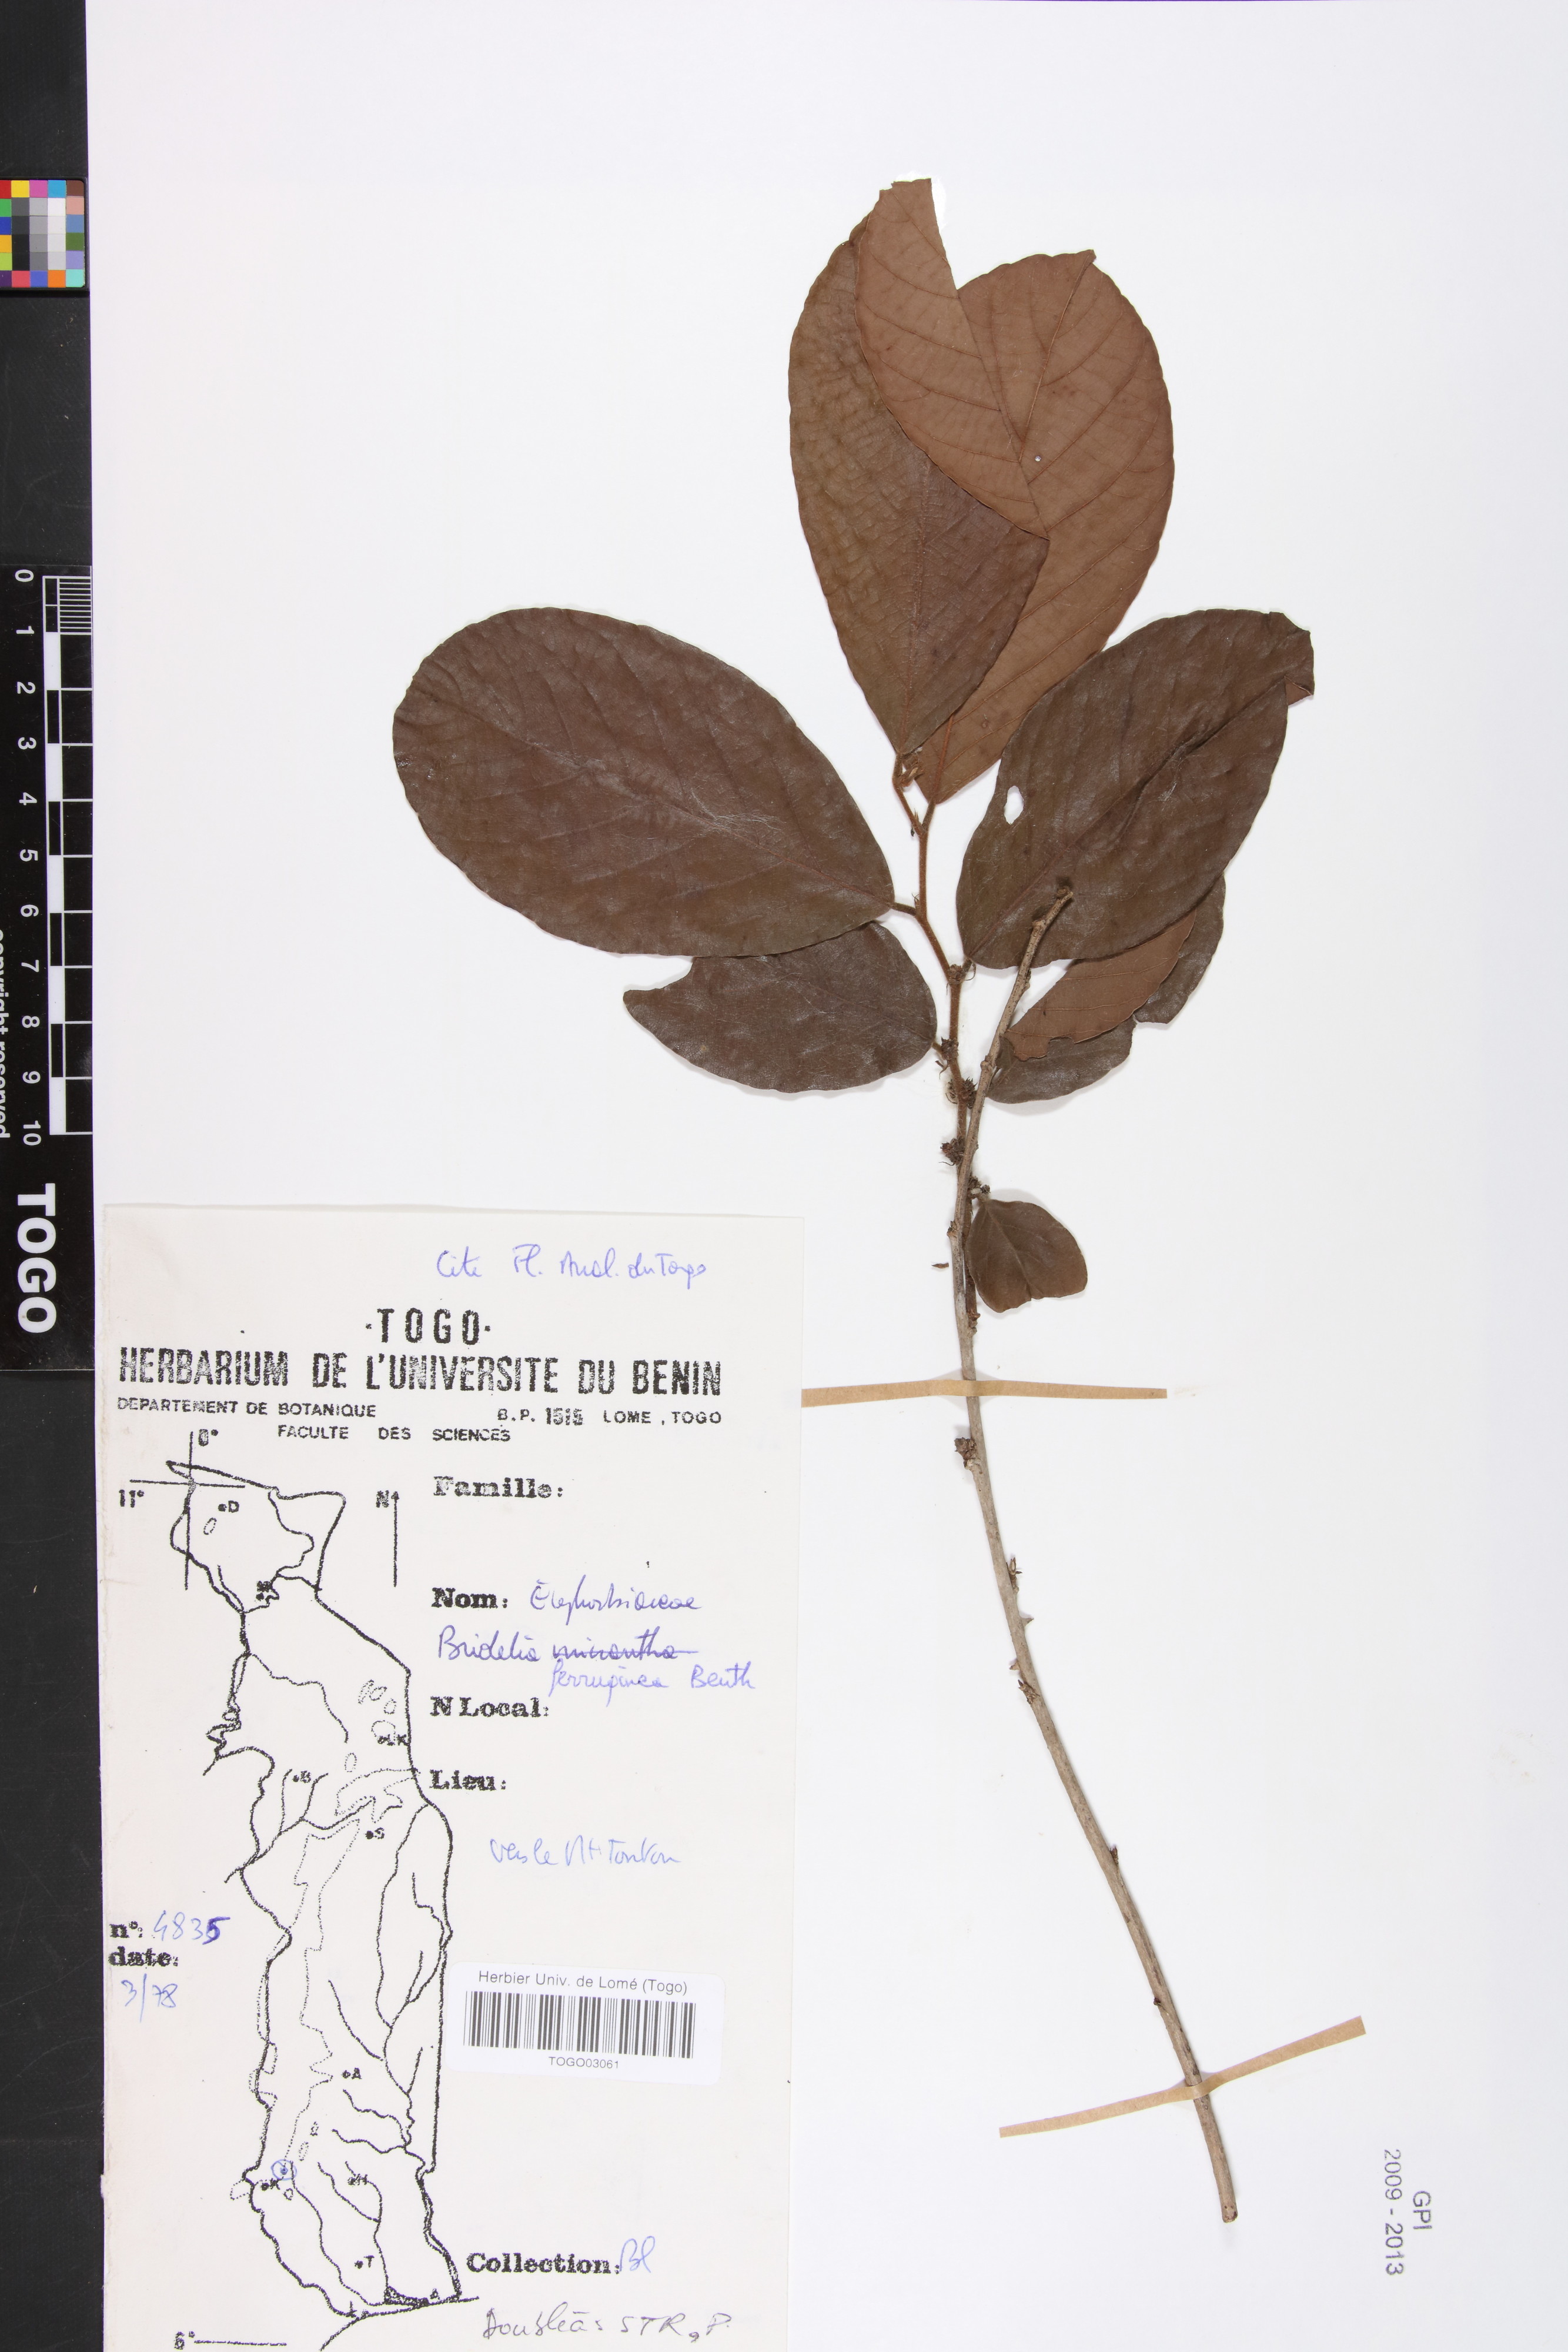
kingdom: Plantae
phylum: Tracheophyta
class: Magnoliopsida
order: Malpighiales
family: Phyllanthaceae
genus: Bridelia
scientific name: Bridelia ferruginea
